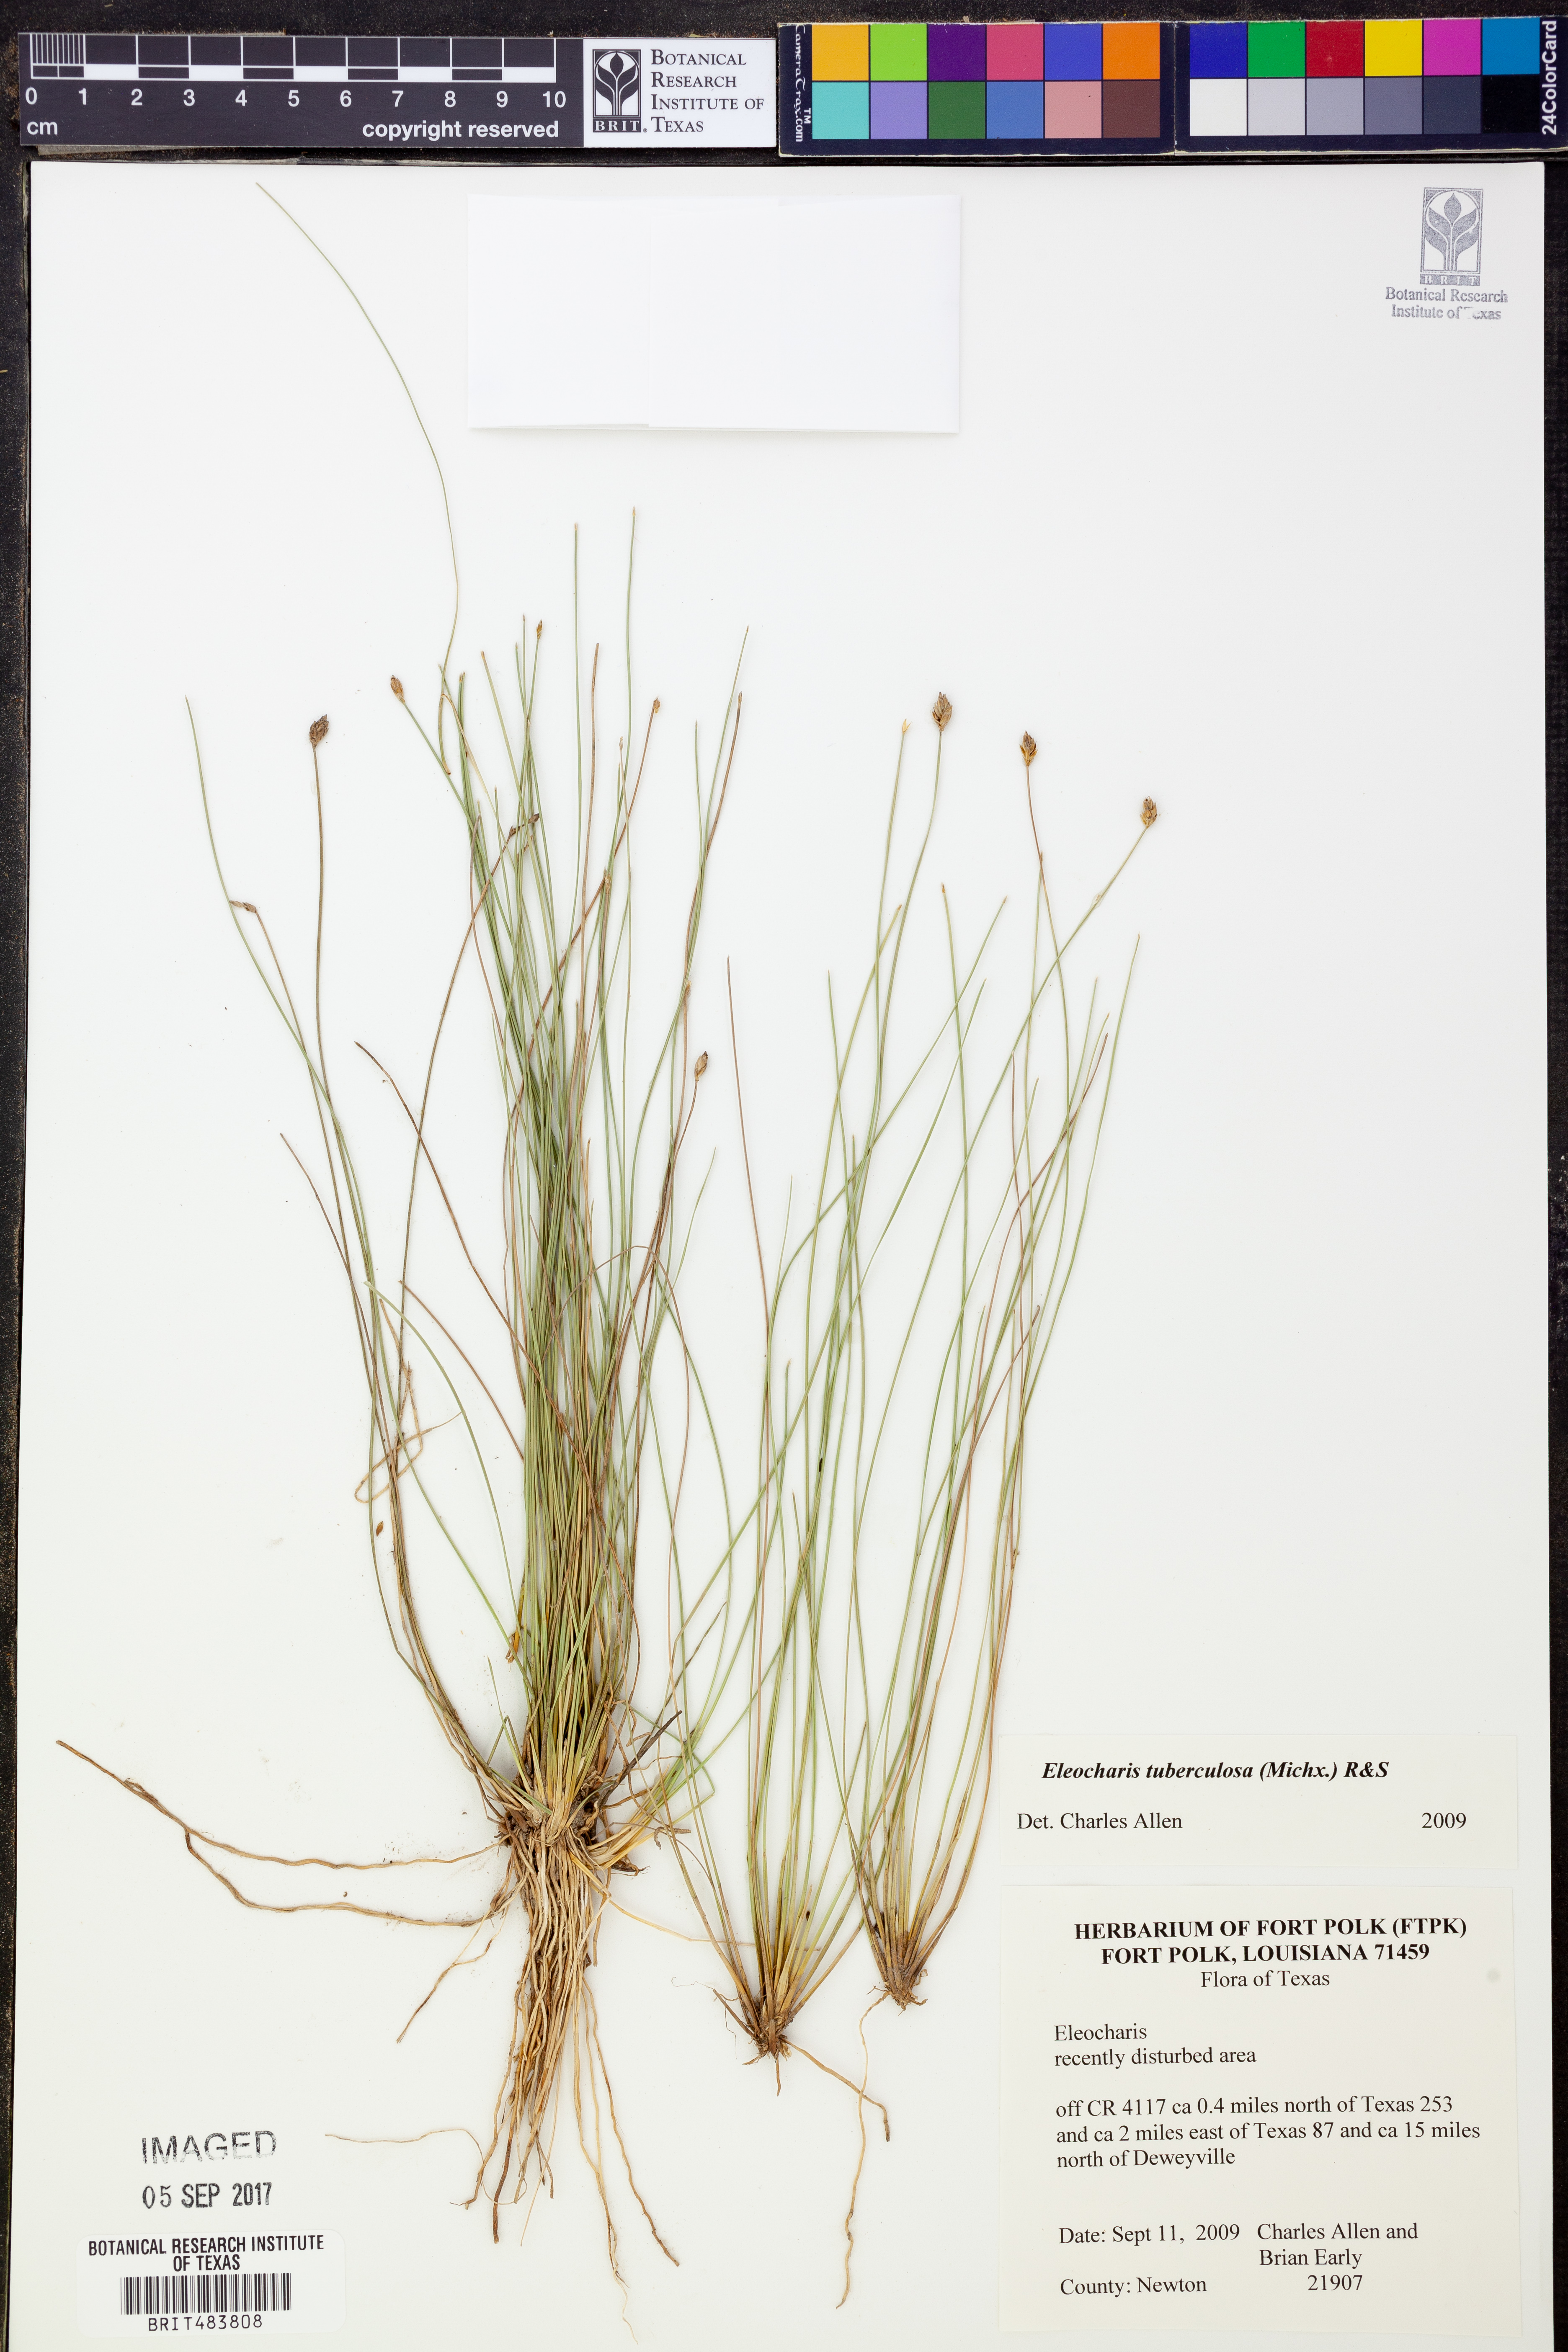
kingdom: Plantae
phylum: Tracheophyta
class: Liliopsida
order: Poales
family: Cyperaceae
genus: Eleocharis
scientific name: Eleocharis tuberculosa
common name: Cone-cup spikerush
